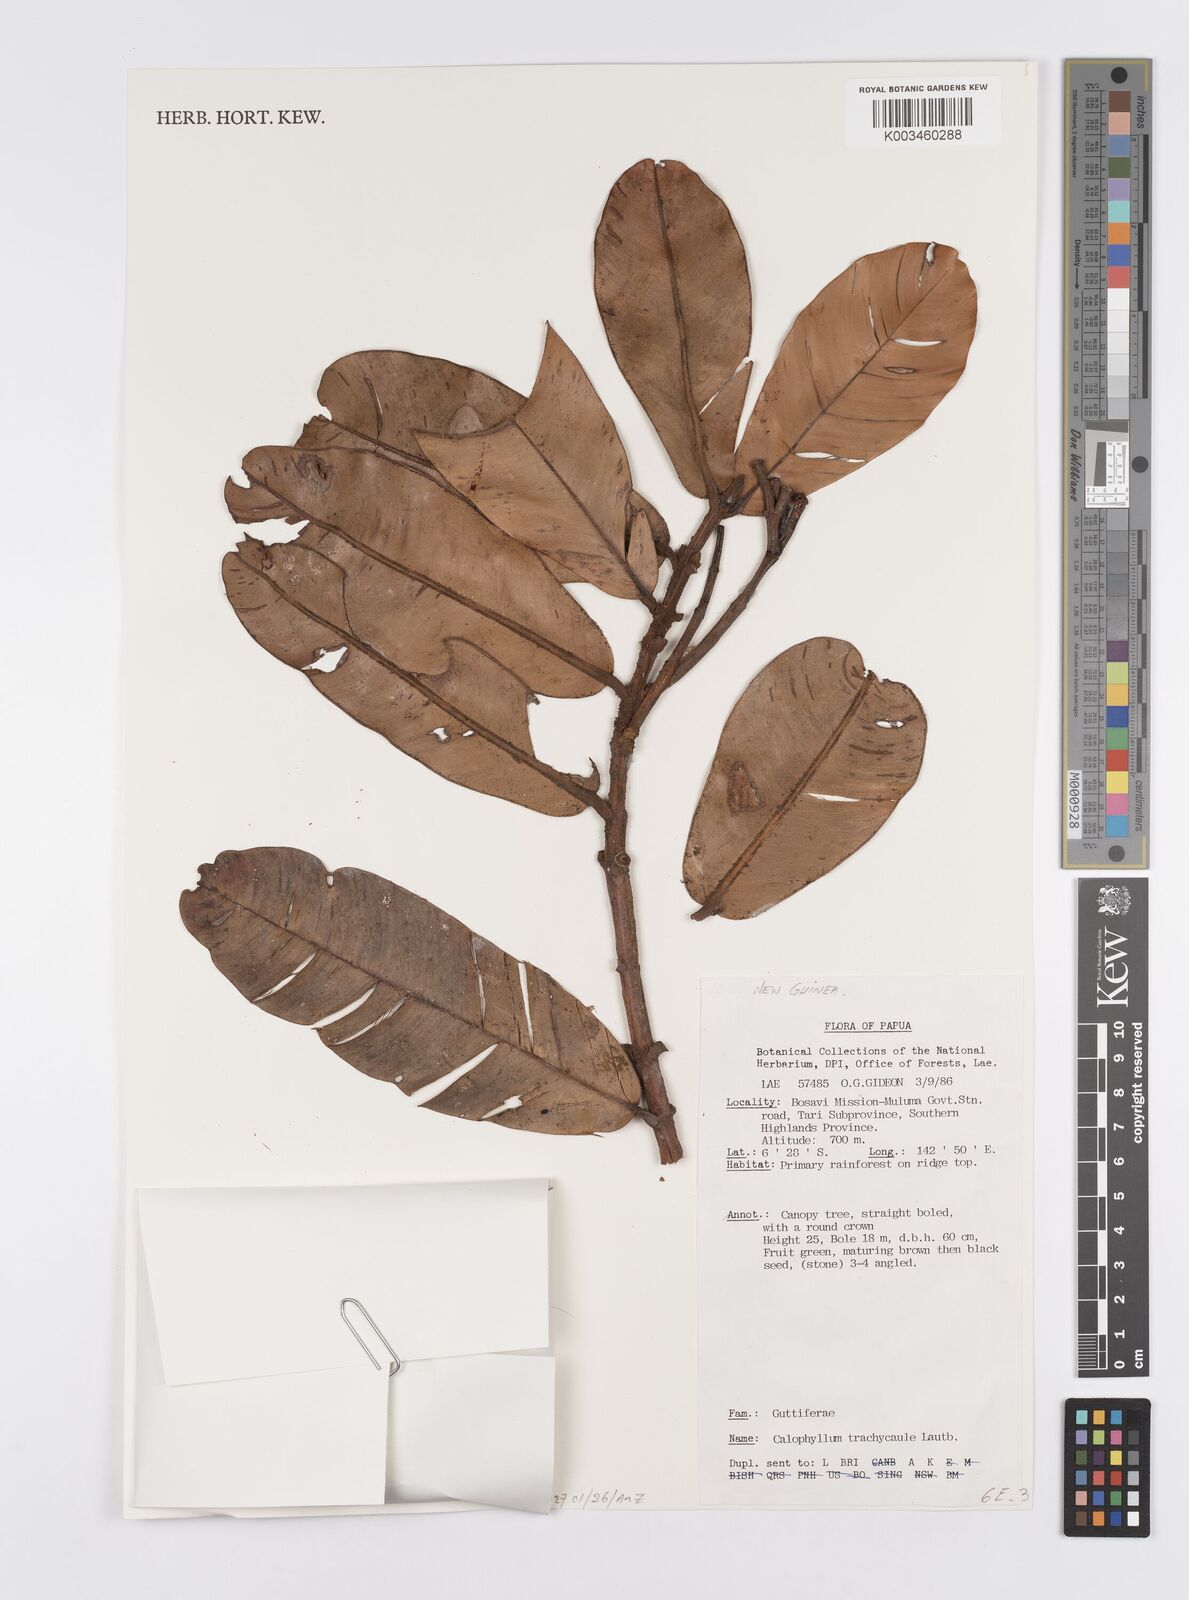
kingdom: Plantae
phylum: Tracheophyta
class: Magnoliopsida
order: Malpighiales
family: Calophyllaceae
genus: Calophyllum
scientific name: Calophyllum trachycaule
